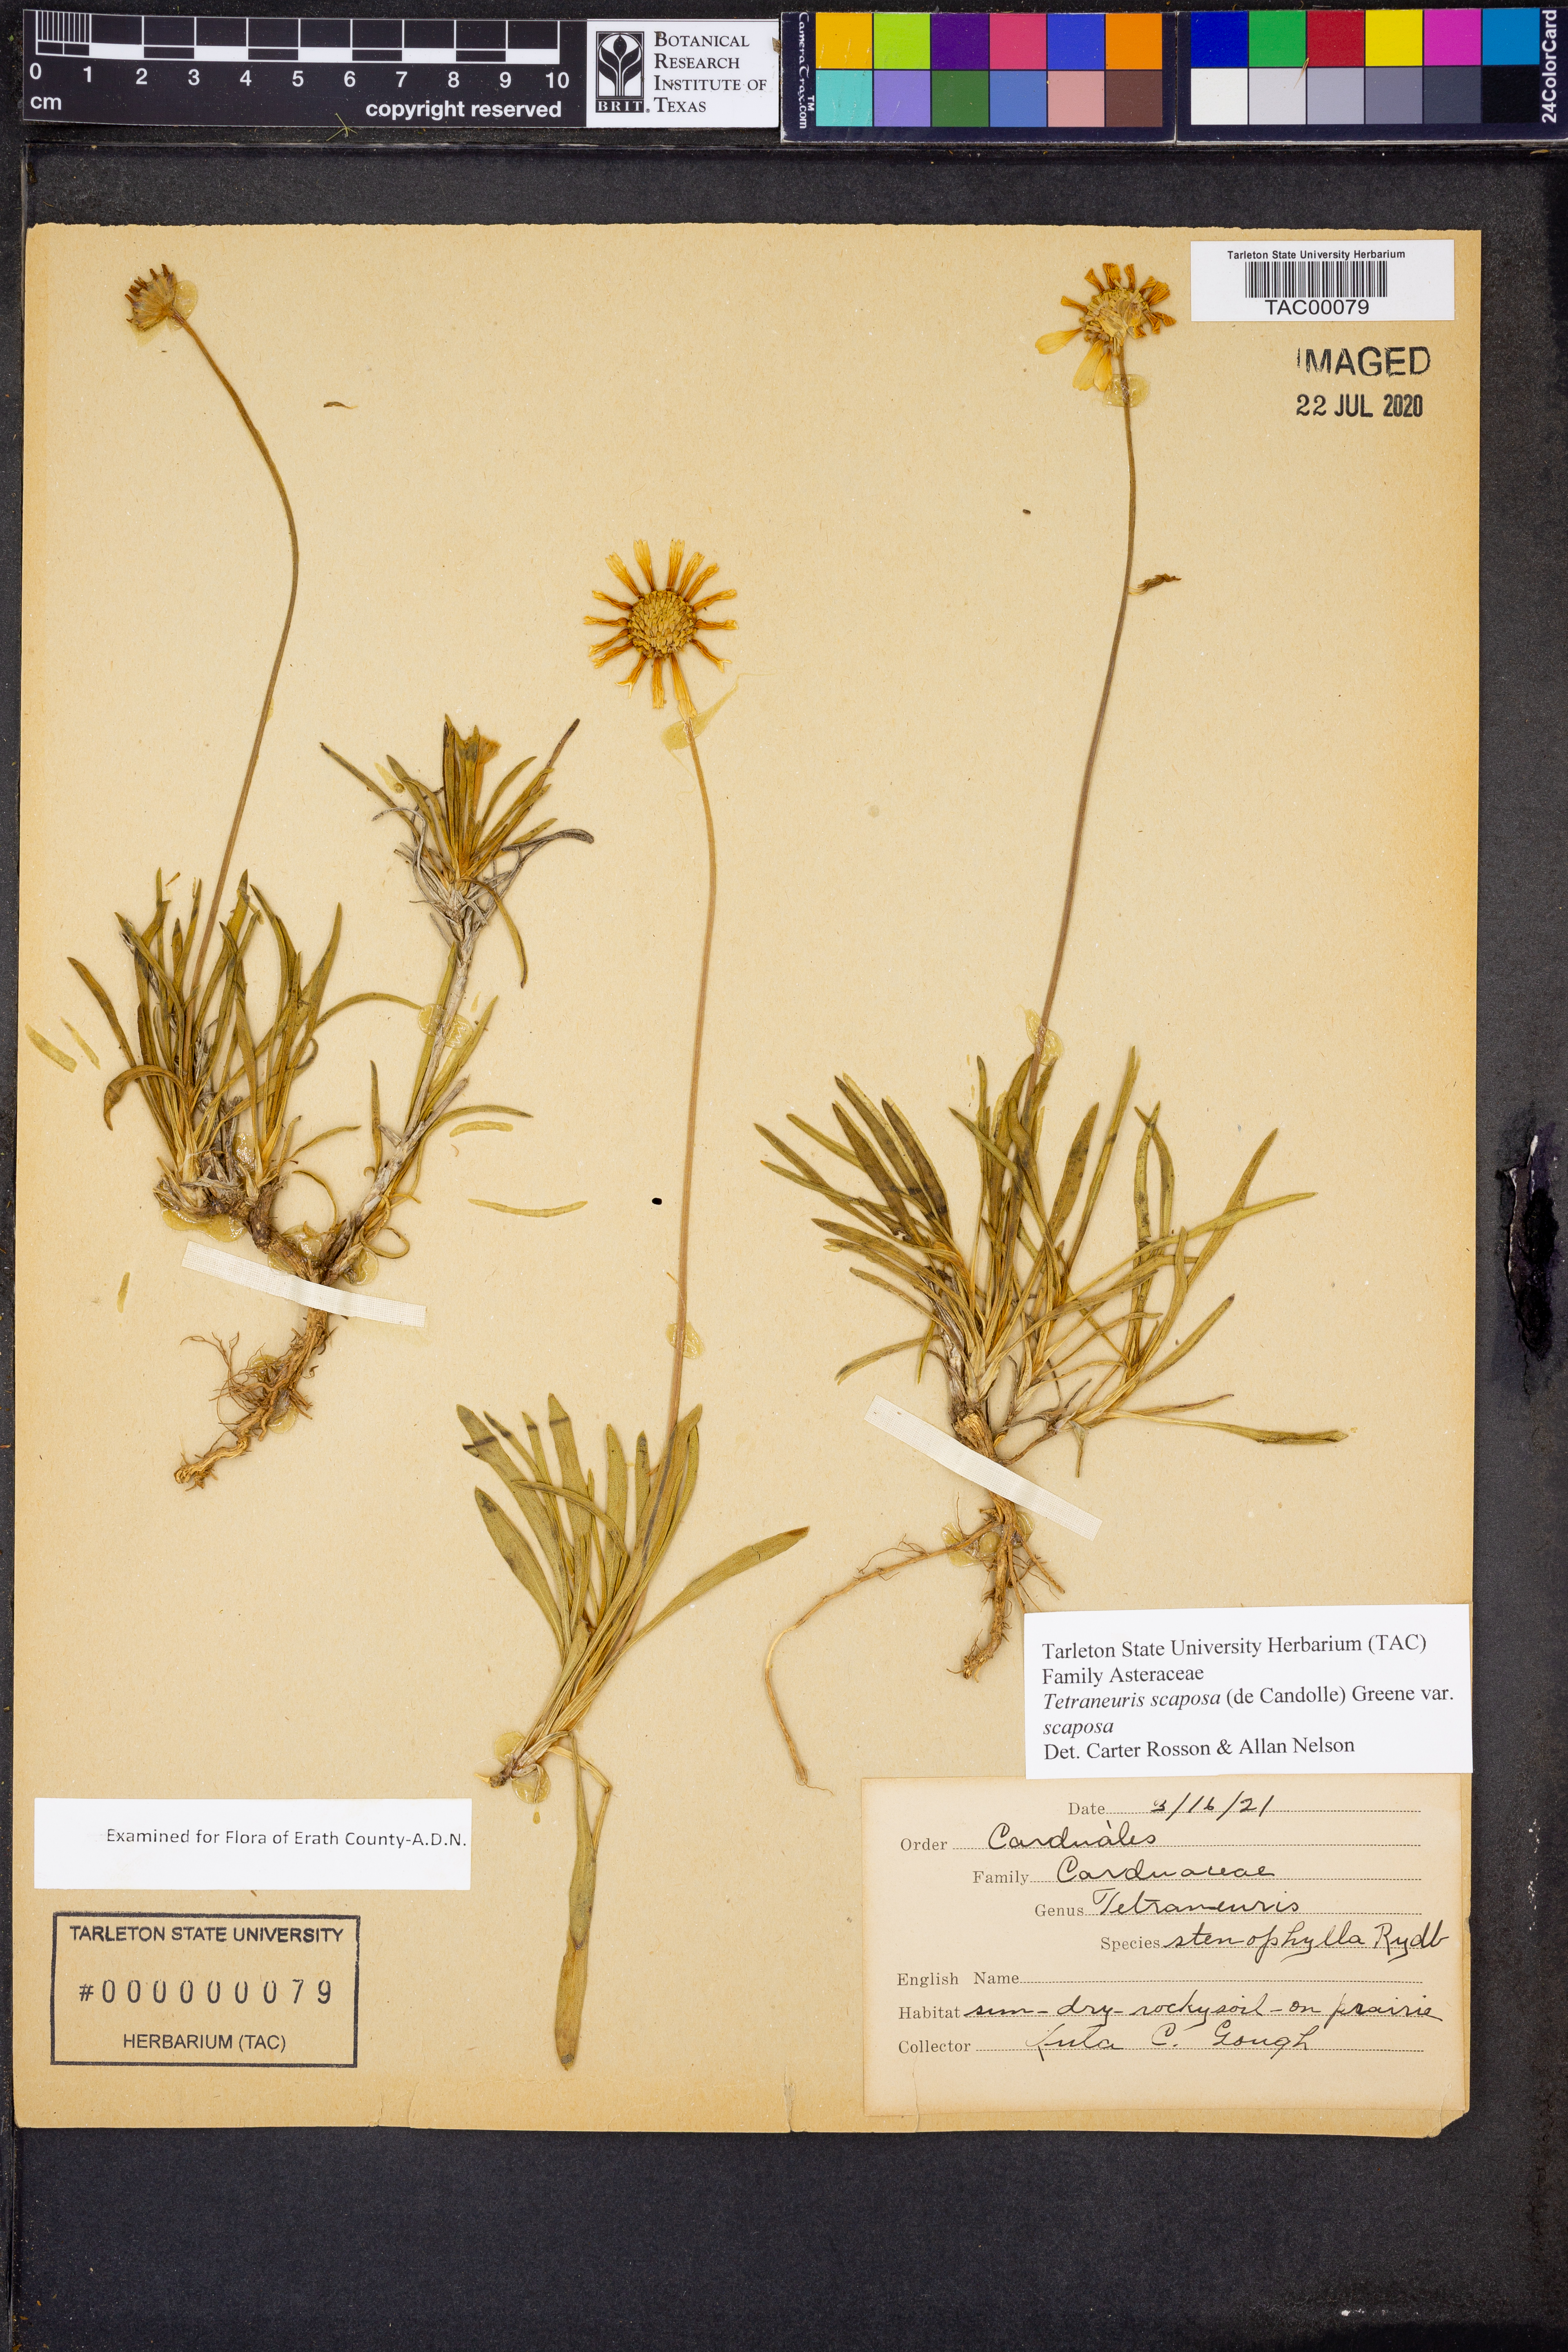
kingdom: Plantae
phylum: Tracheophyta
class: Magnoliopsida
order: Asterales
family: Asteraceae
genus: Tetraneuris
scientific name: Tetraneuris scaposa
